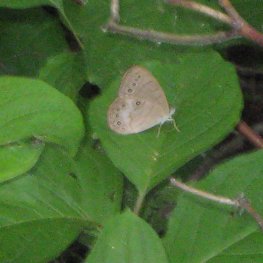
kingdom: Animalia
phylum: Arthropoda
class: Insecta
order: Lepidoptera
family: Nymphalidae
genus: Lethe
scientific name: Lethe eurydice
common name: Appalachian Eyed Brown
